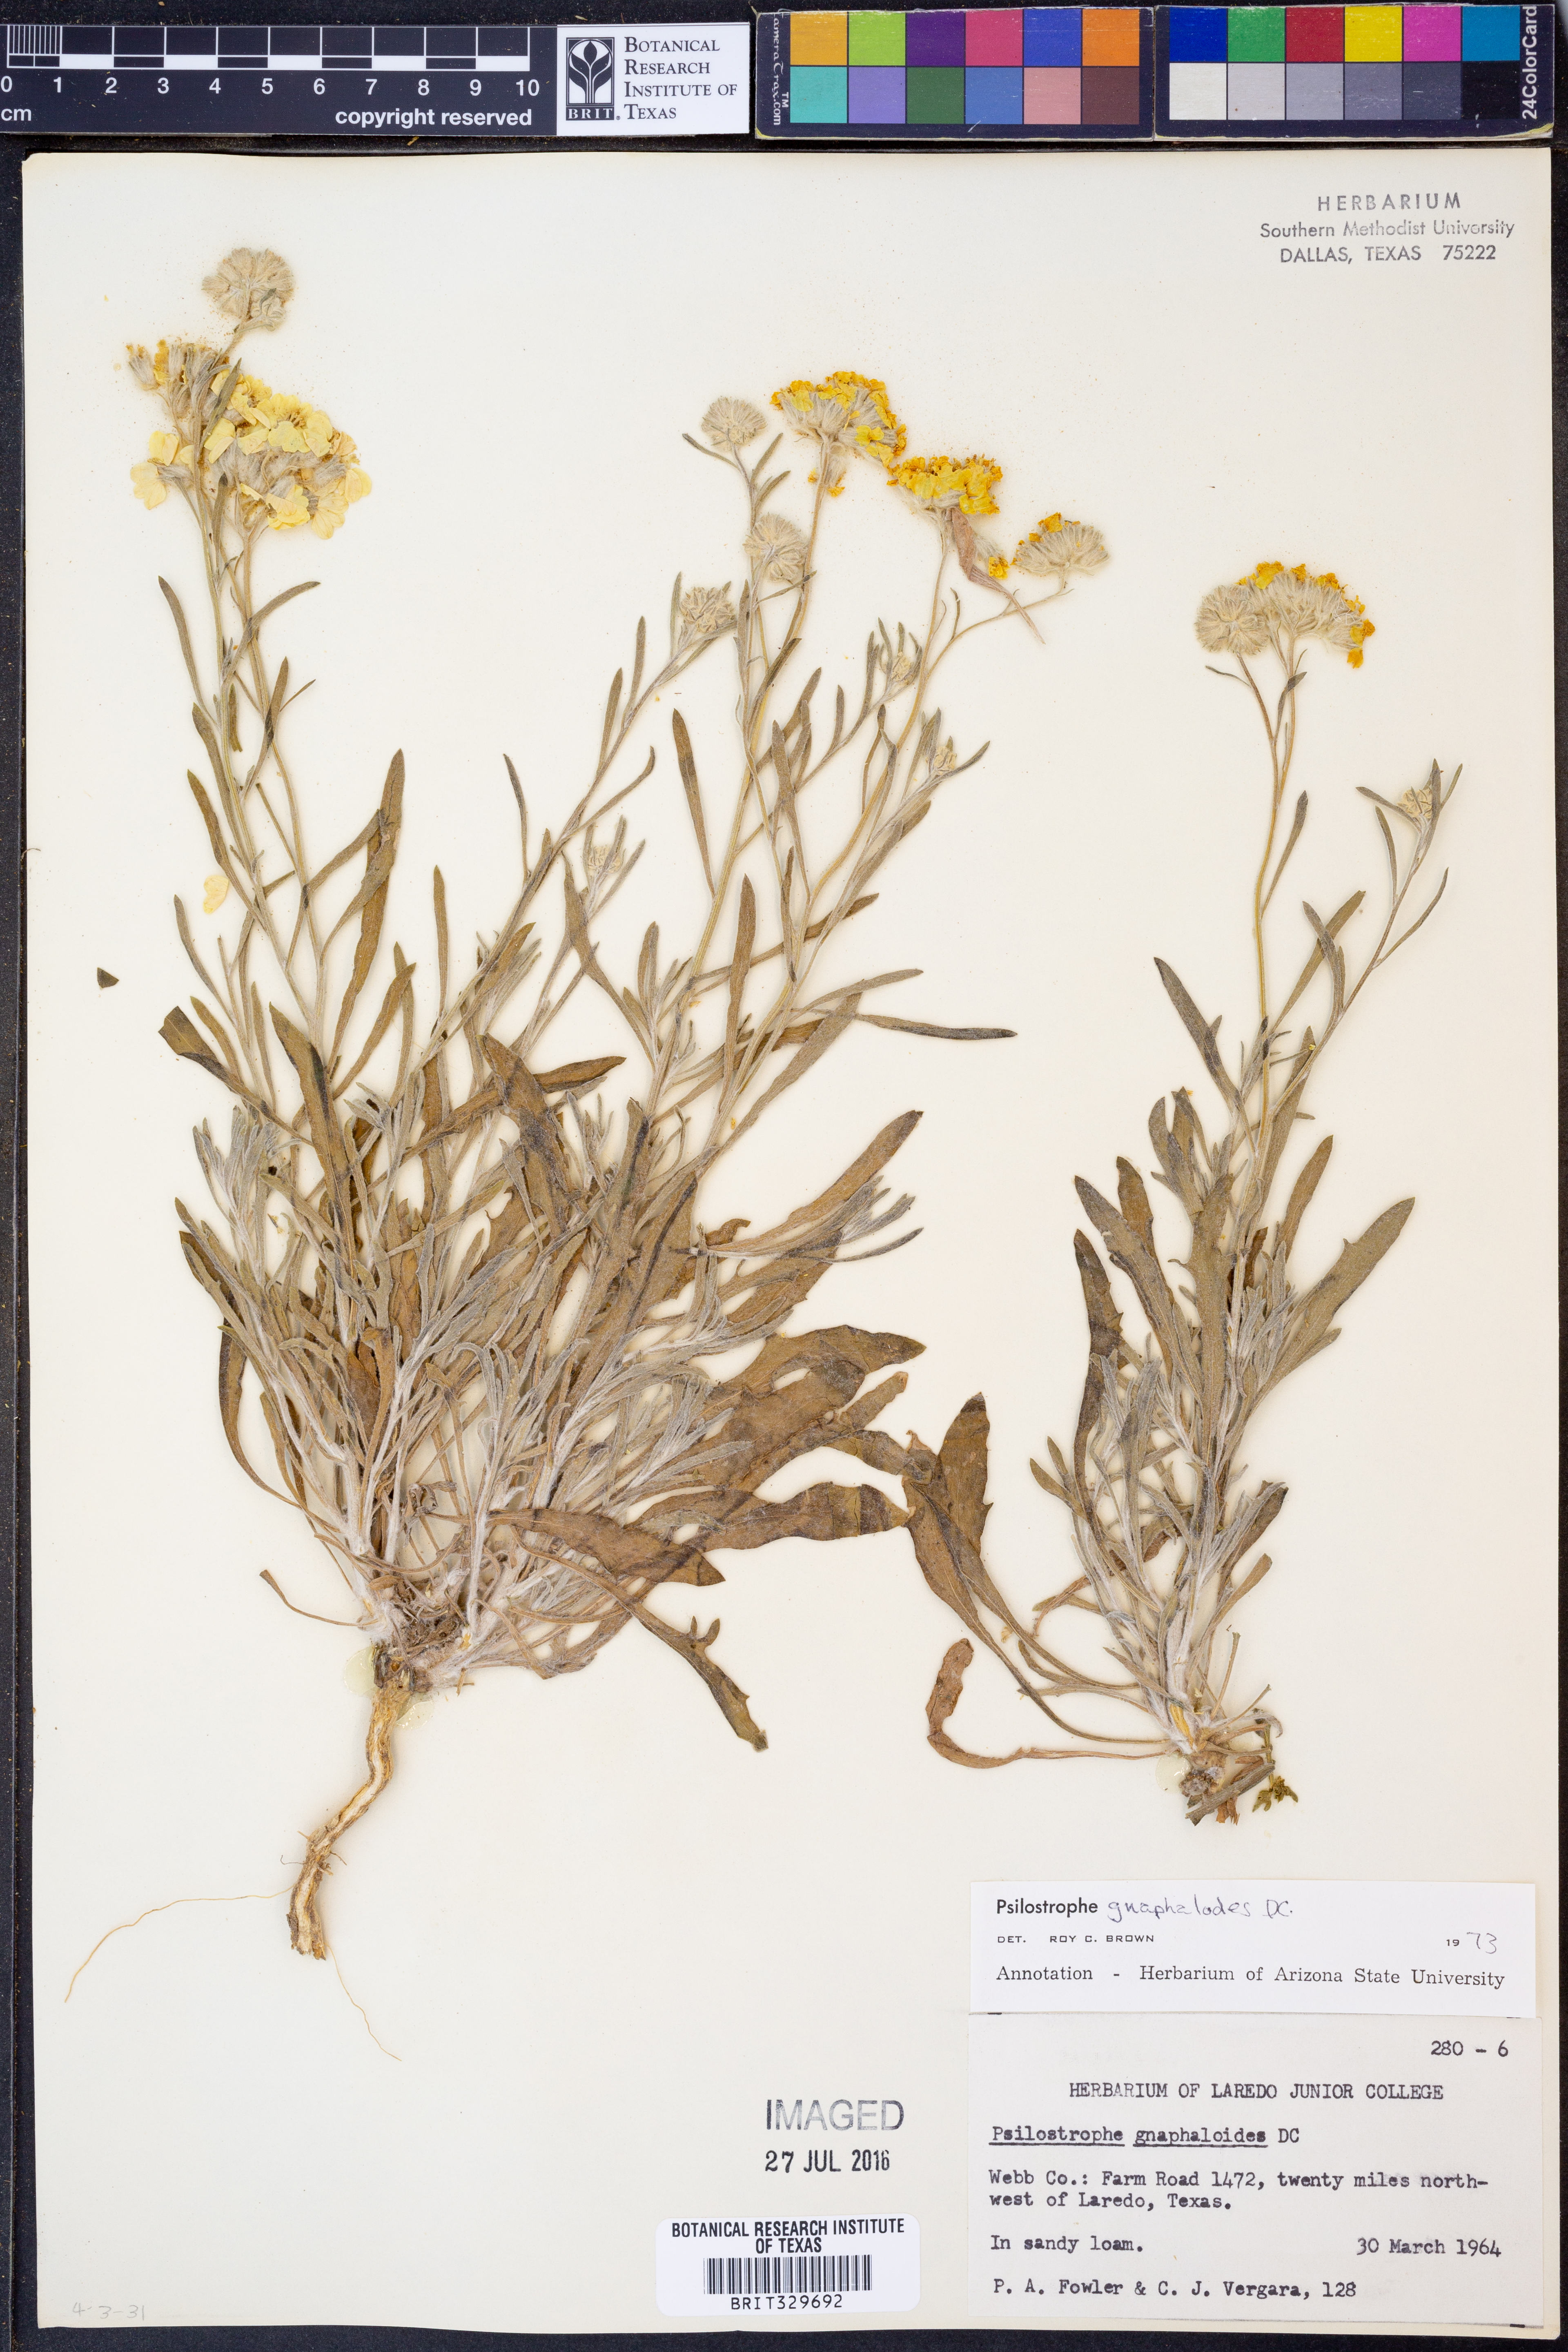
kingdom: Plantae
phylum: Tracheophyta
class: Magnoliopsida
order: Asterales
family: Asteraceae
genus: Psilostrophe
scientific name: Psilostrophe gnaphalioides
